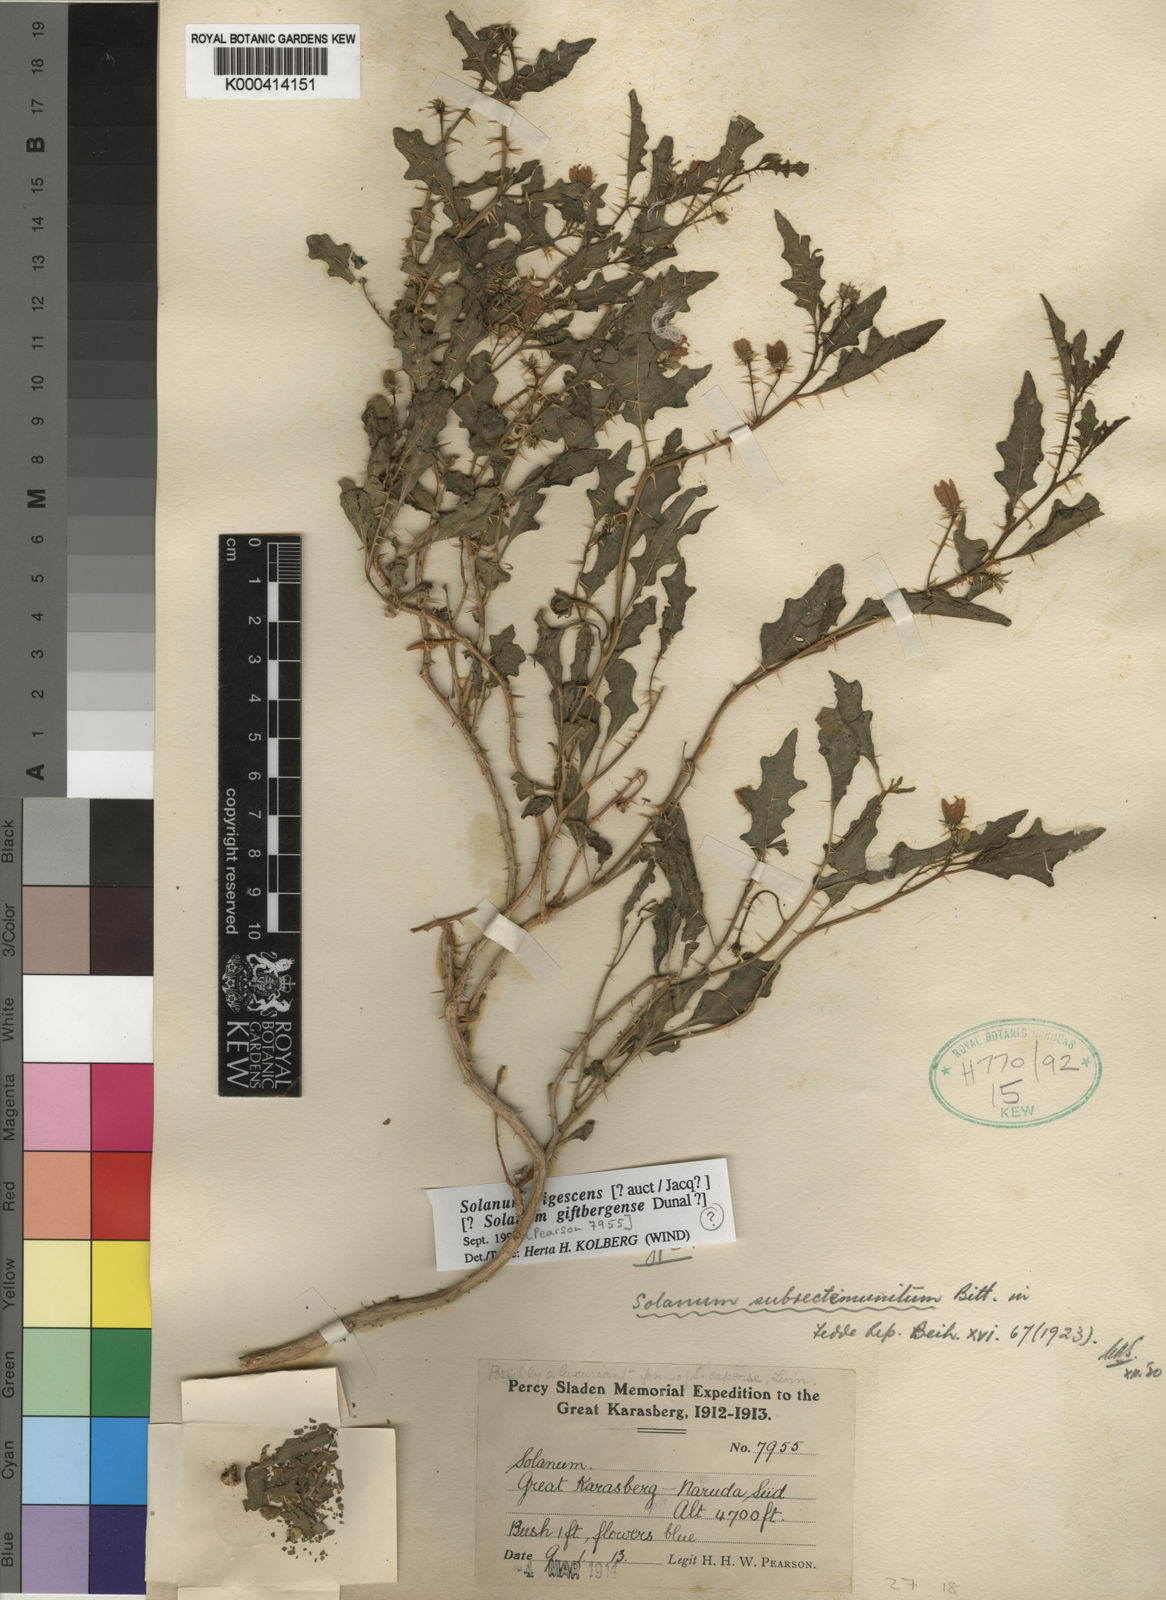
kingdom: Plantae
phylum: Tracheophyta
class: Magnoliopsida
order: Solanales
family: Solanaceae
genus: Solanum
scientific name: Solanum humile
